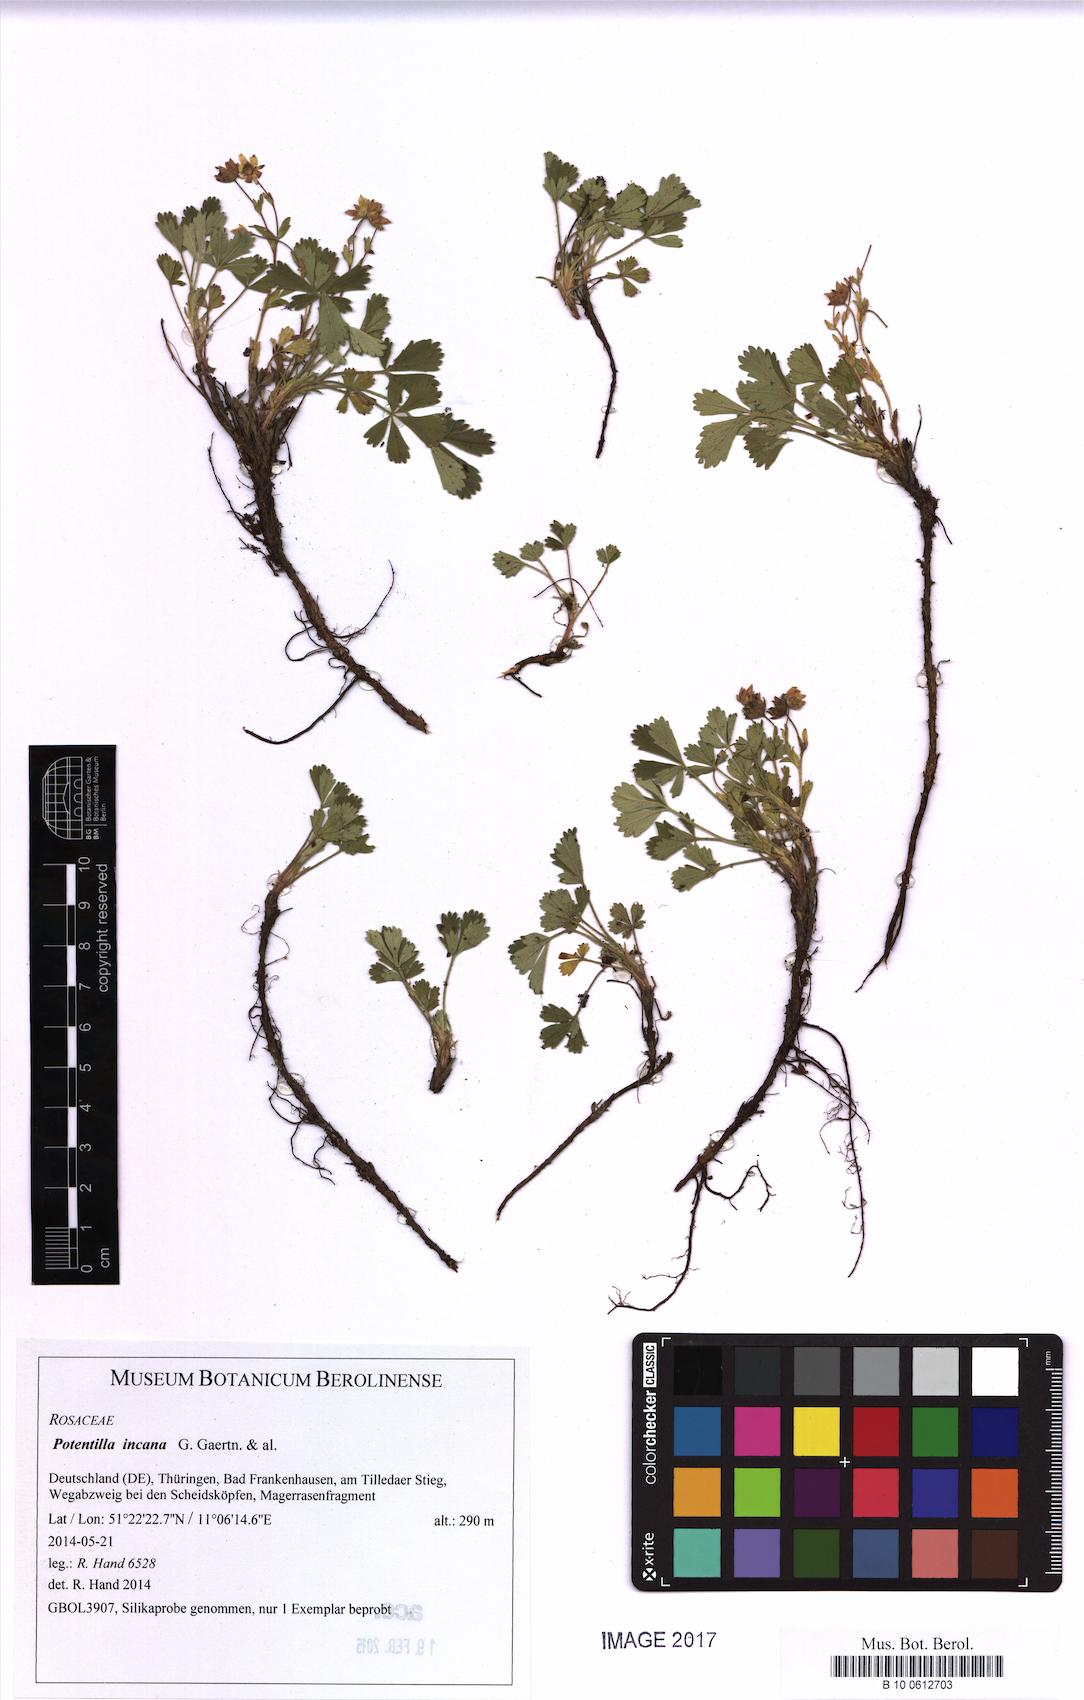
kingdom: Plantae
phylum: Tracheophyta
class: Magnoliopsida
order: Rosales
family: Rosaceae
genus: Potentilla
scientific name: Potentilla cinerea
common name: Ashy cinquefoil
